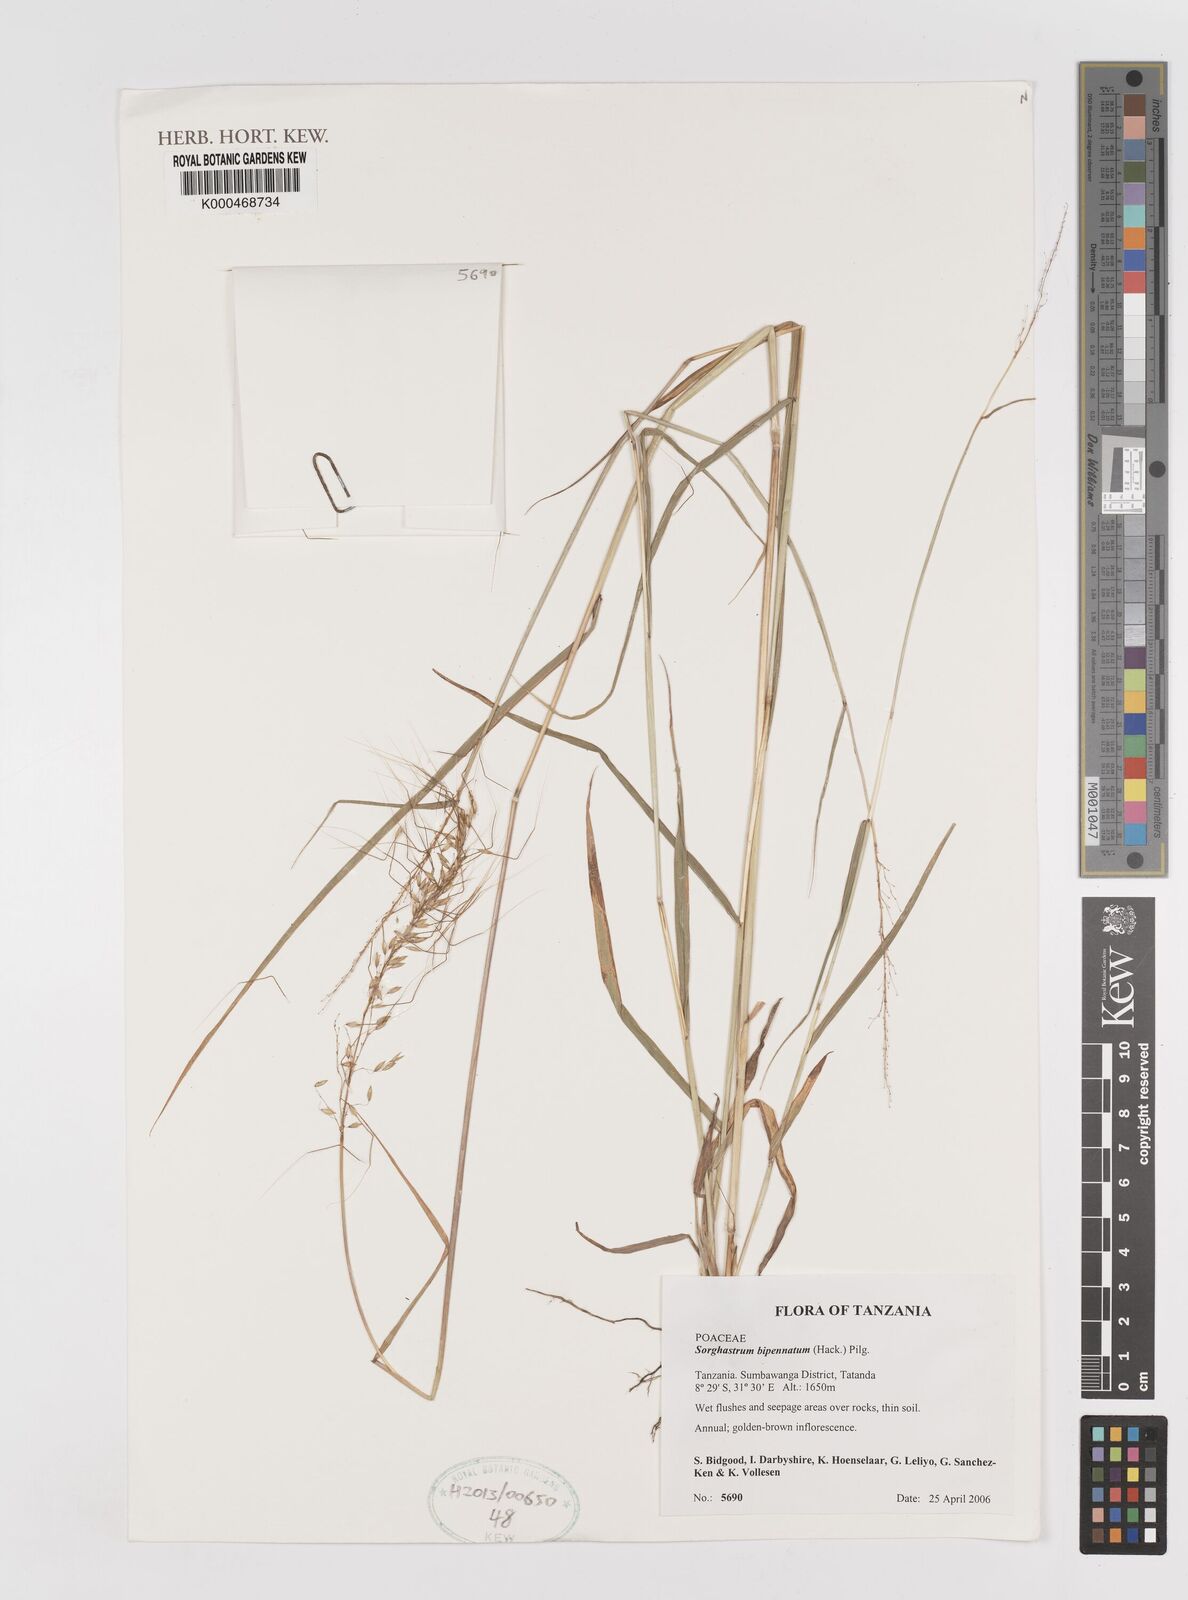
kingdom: Plantae
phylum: Tracheophyta
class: Liliopsida
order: Poales
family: Poaceae
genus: Sorghastrum
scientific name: Sorghastrum incompletum
